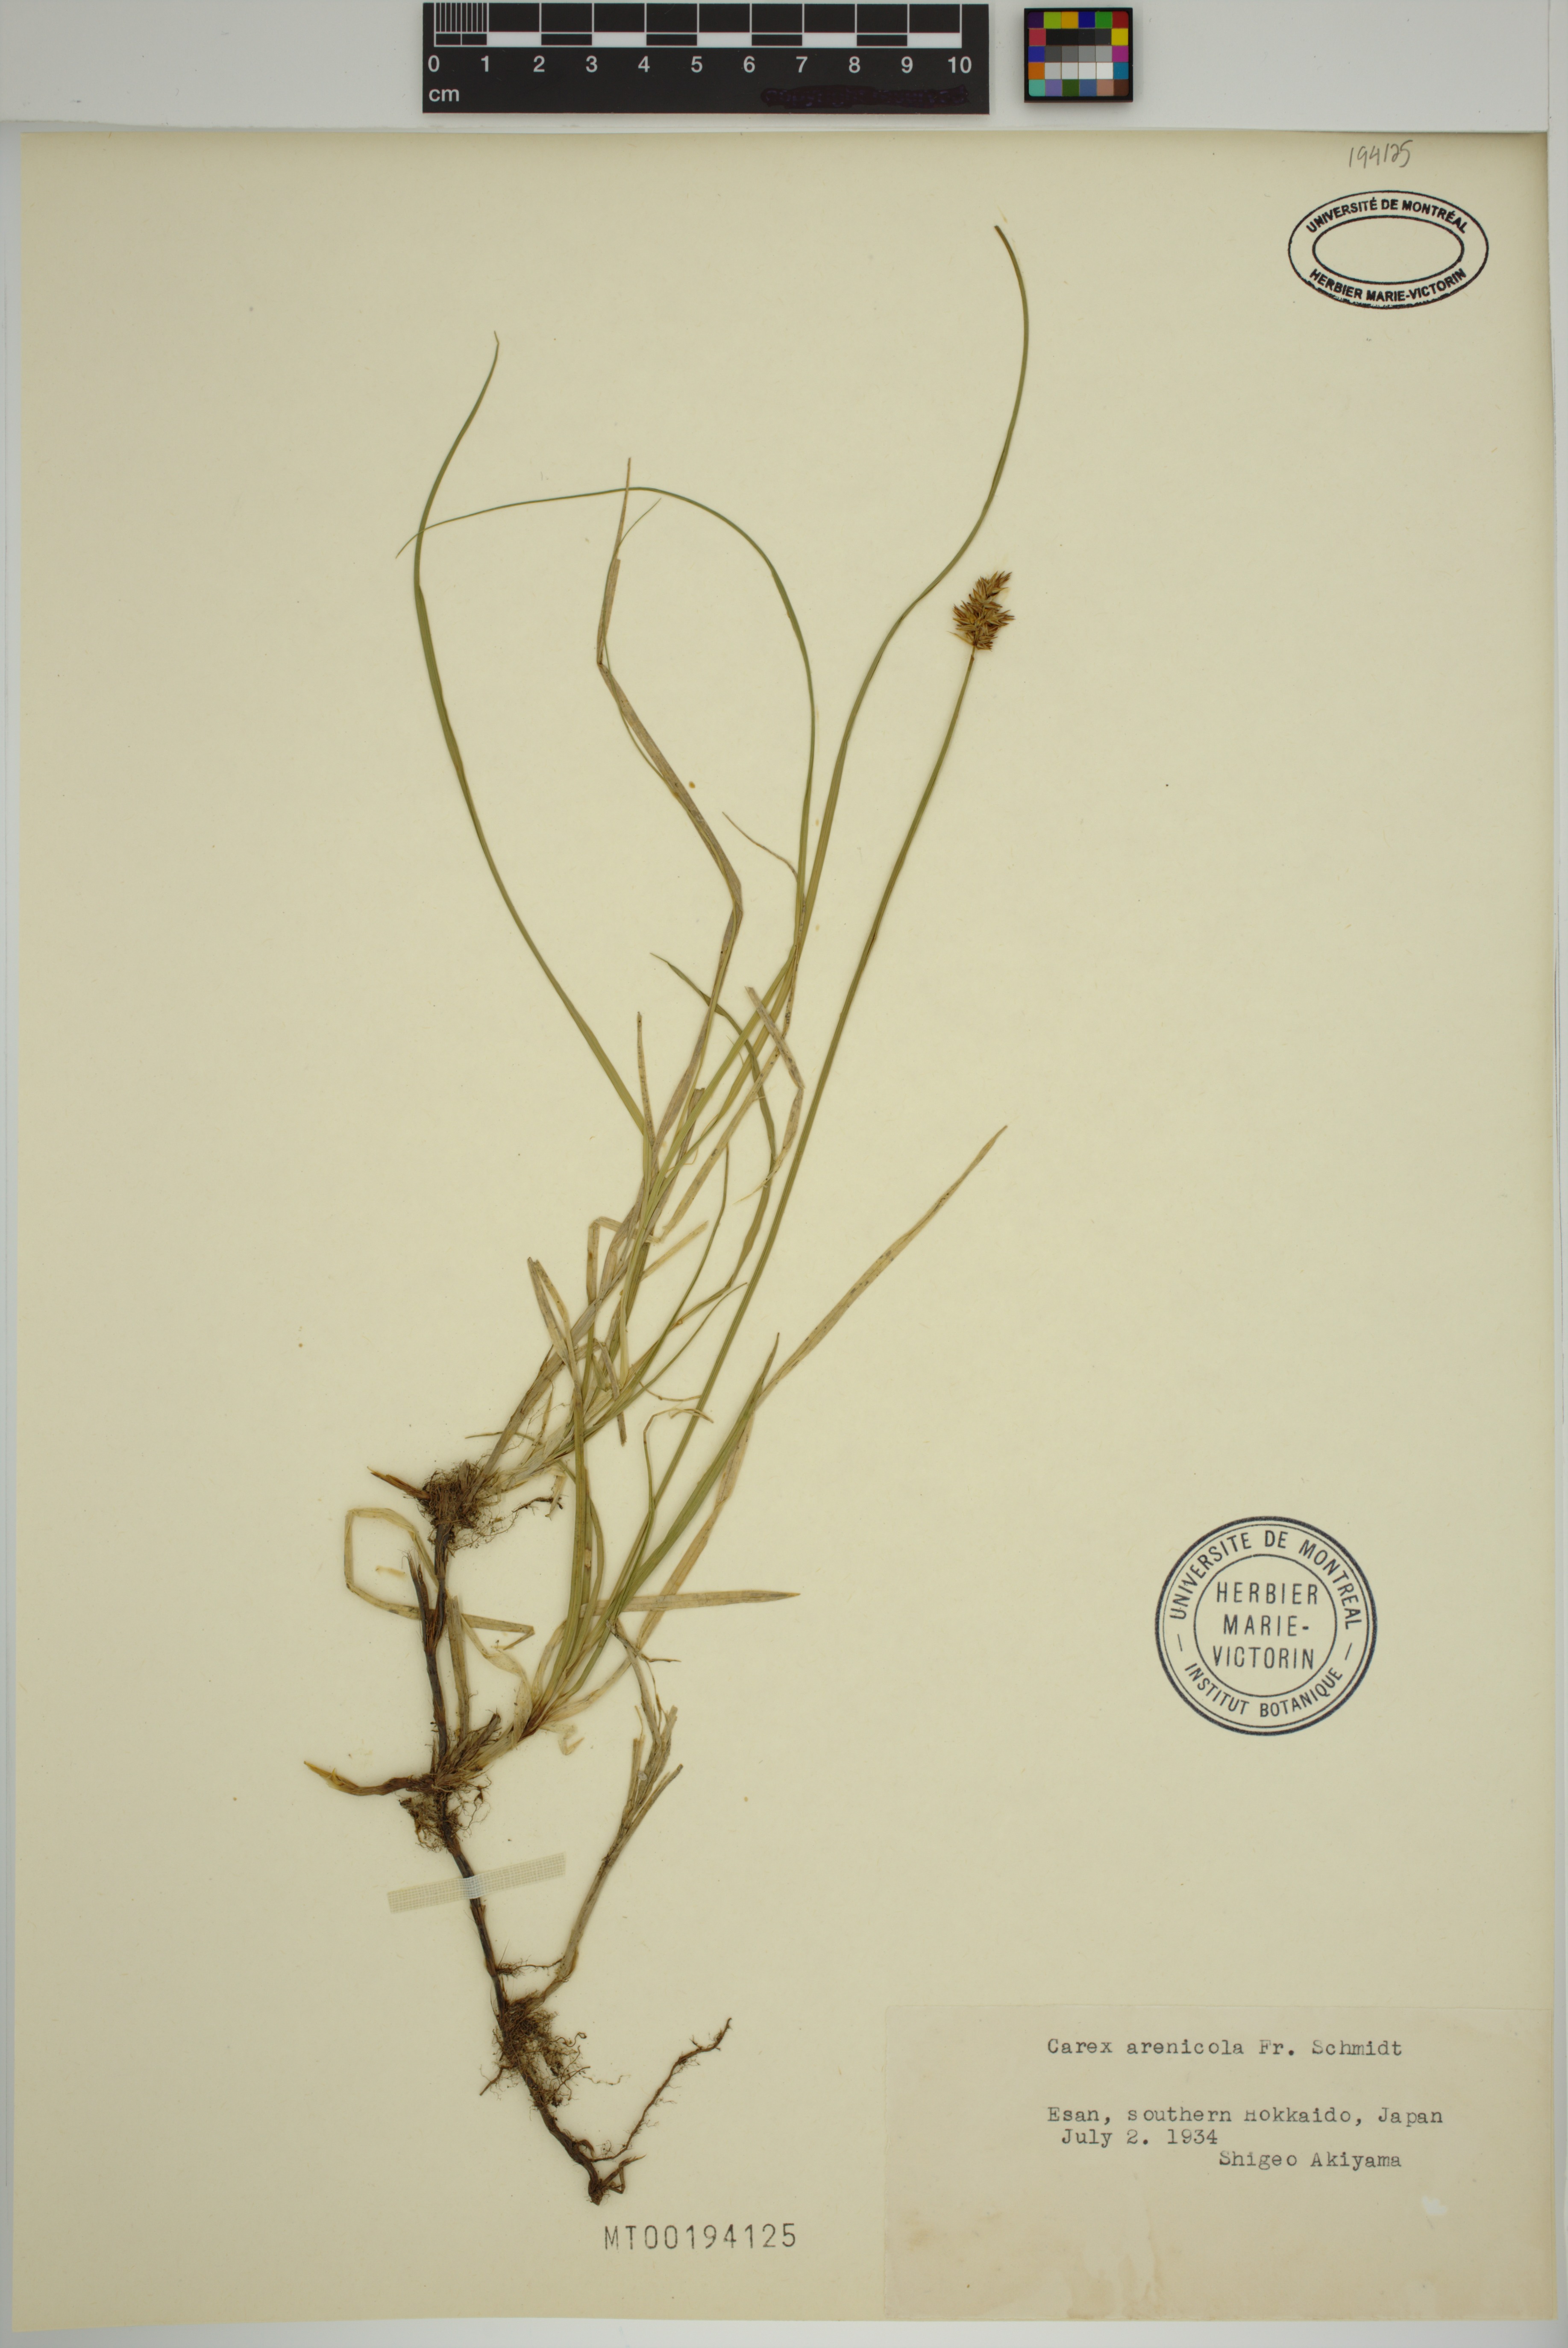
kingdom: Plantae
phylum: Tracheophyta
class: Liliopsida
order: Poales
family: Cyperaceae
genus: Carex
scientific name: Carex arenicola
